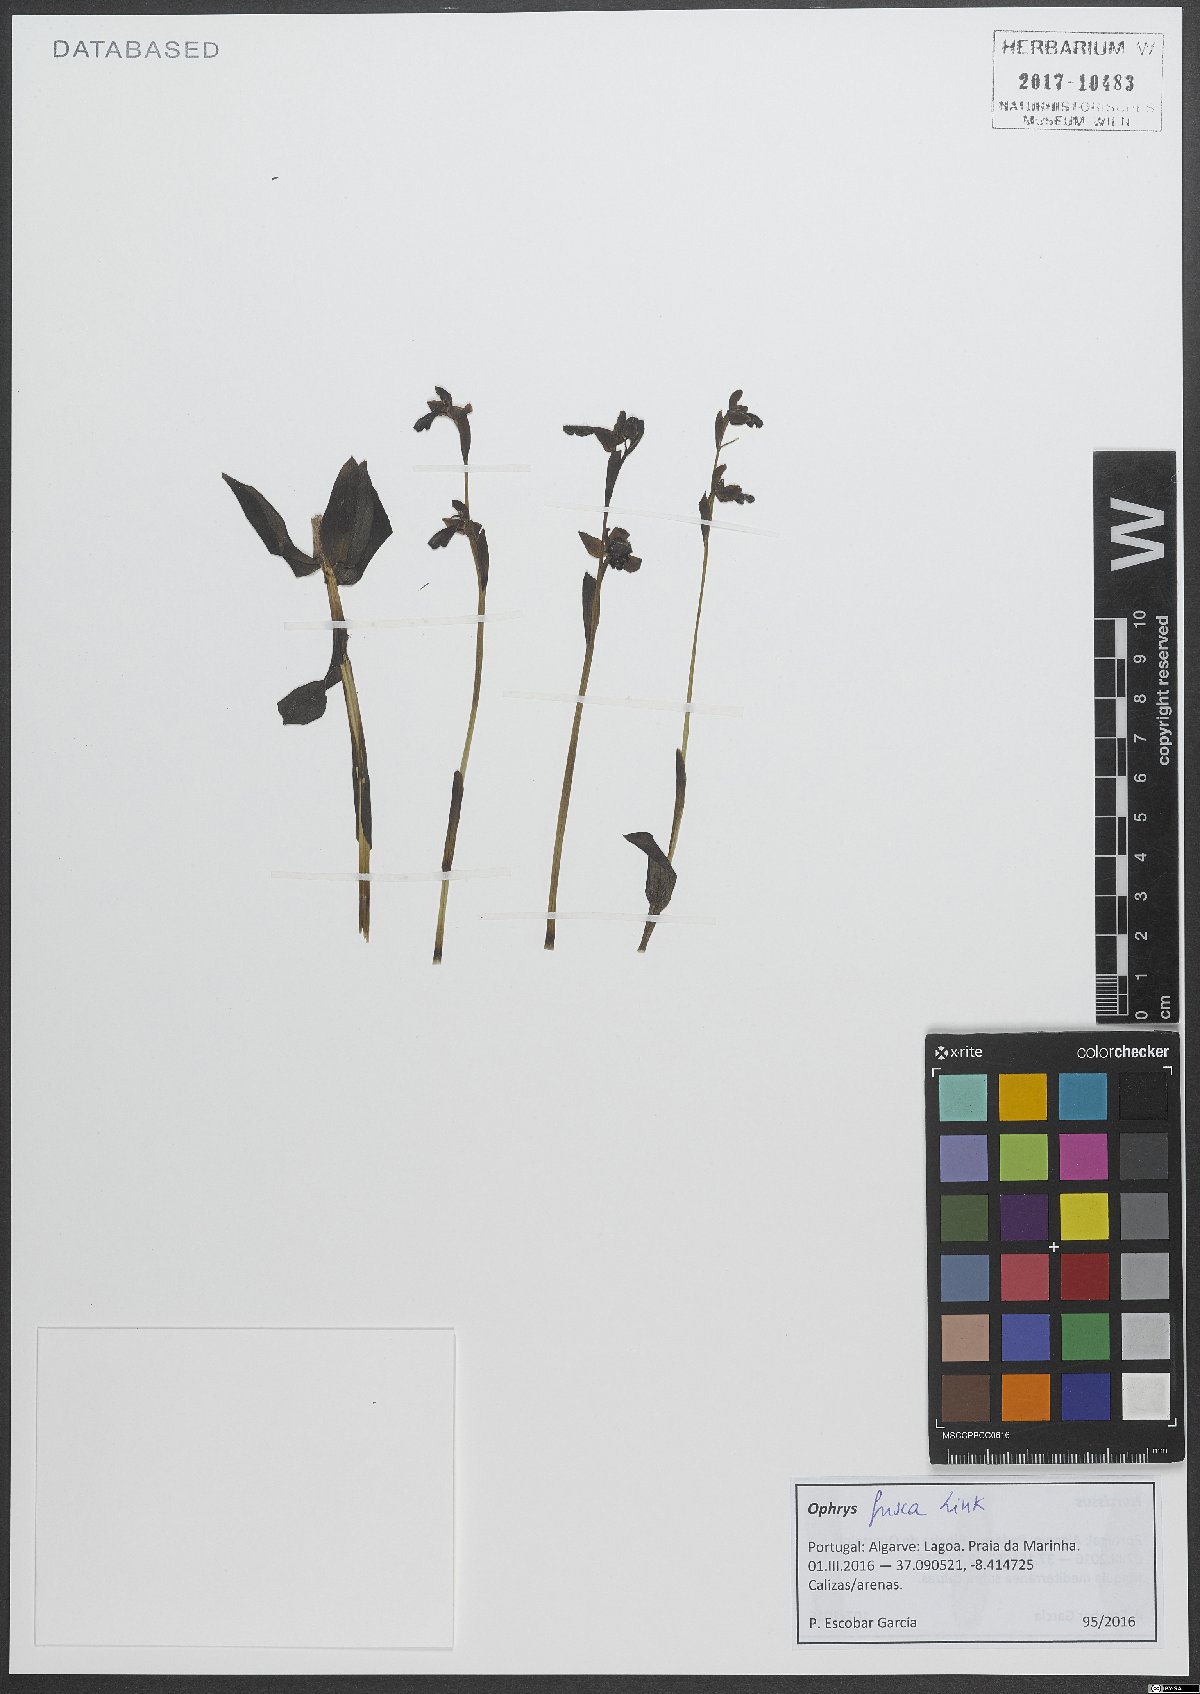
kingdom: Plantae
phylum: Tracheophyta
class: Liliopsida
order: Asparagales
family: Orchidaceae
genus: Ophrys
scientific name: Ophrys fusca
